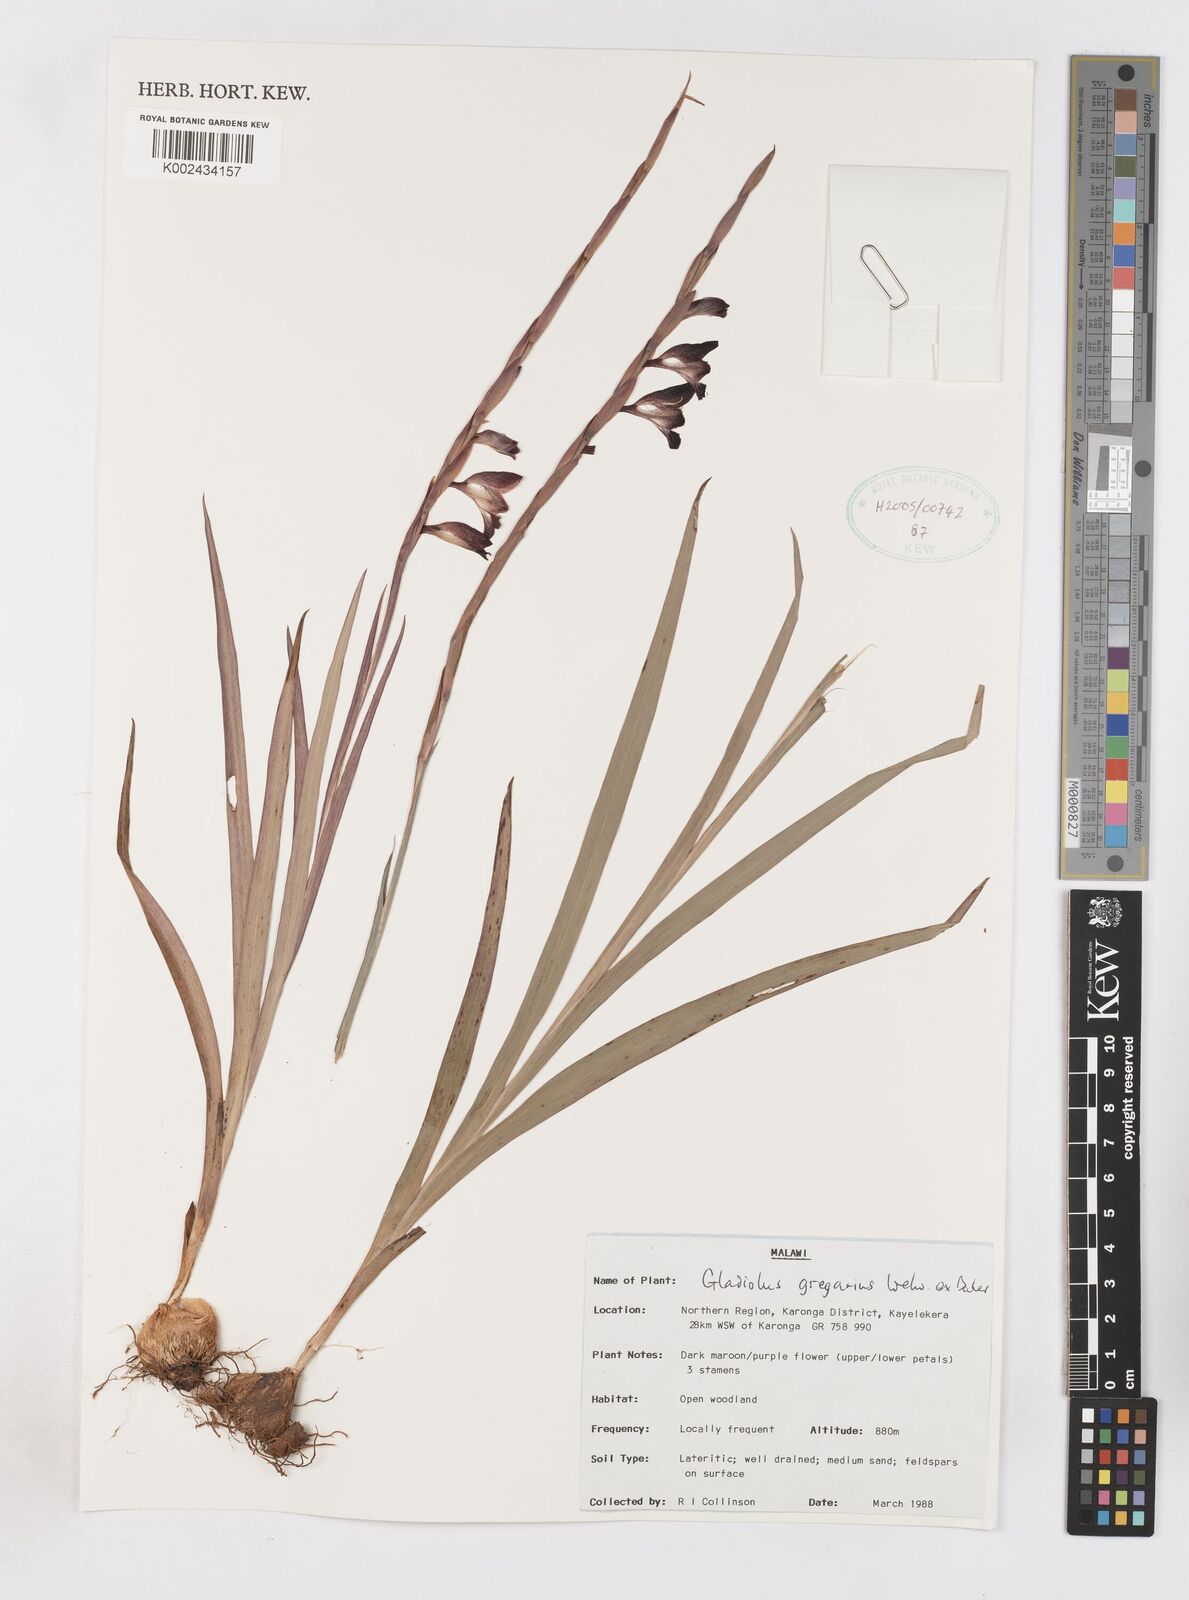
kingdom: Plantae
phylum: Tracheophyta
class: Liliopsida
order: Asparagales
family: Iridaceae
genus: Gladiolus
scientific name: Gladiolus gregarius
